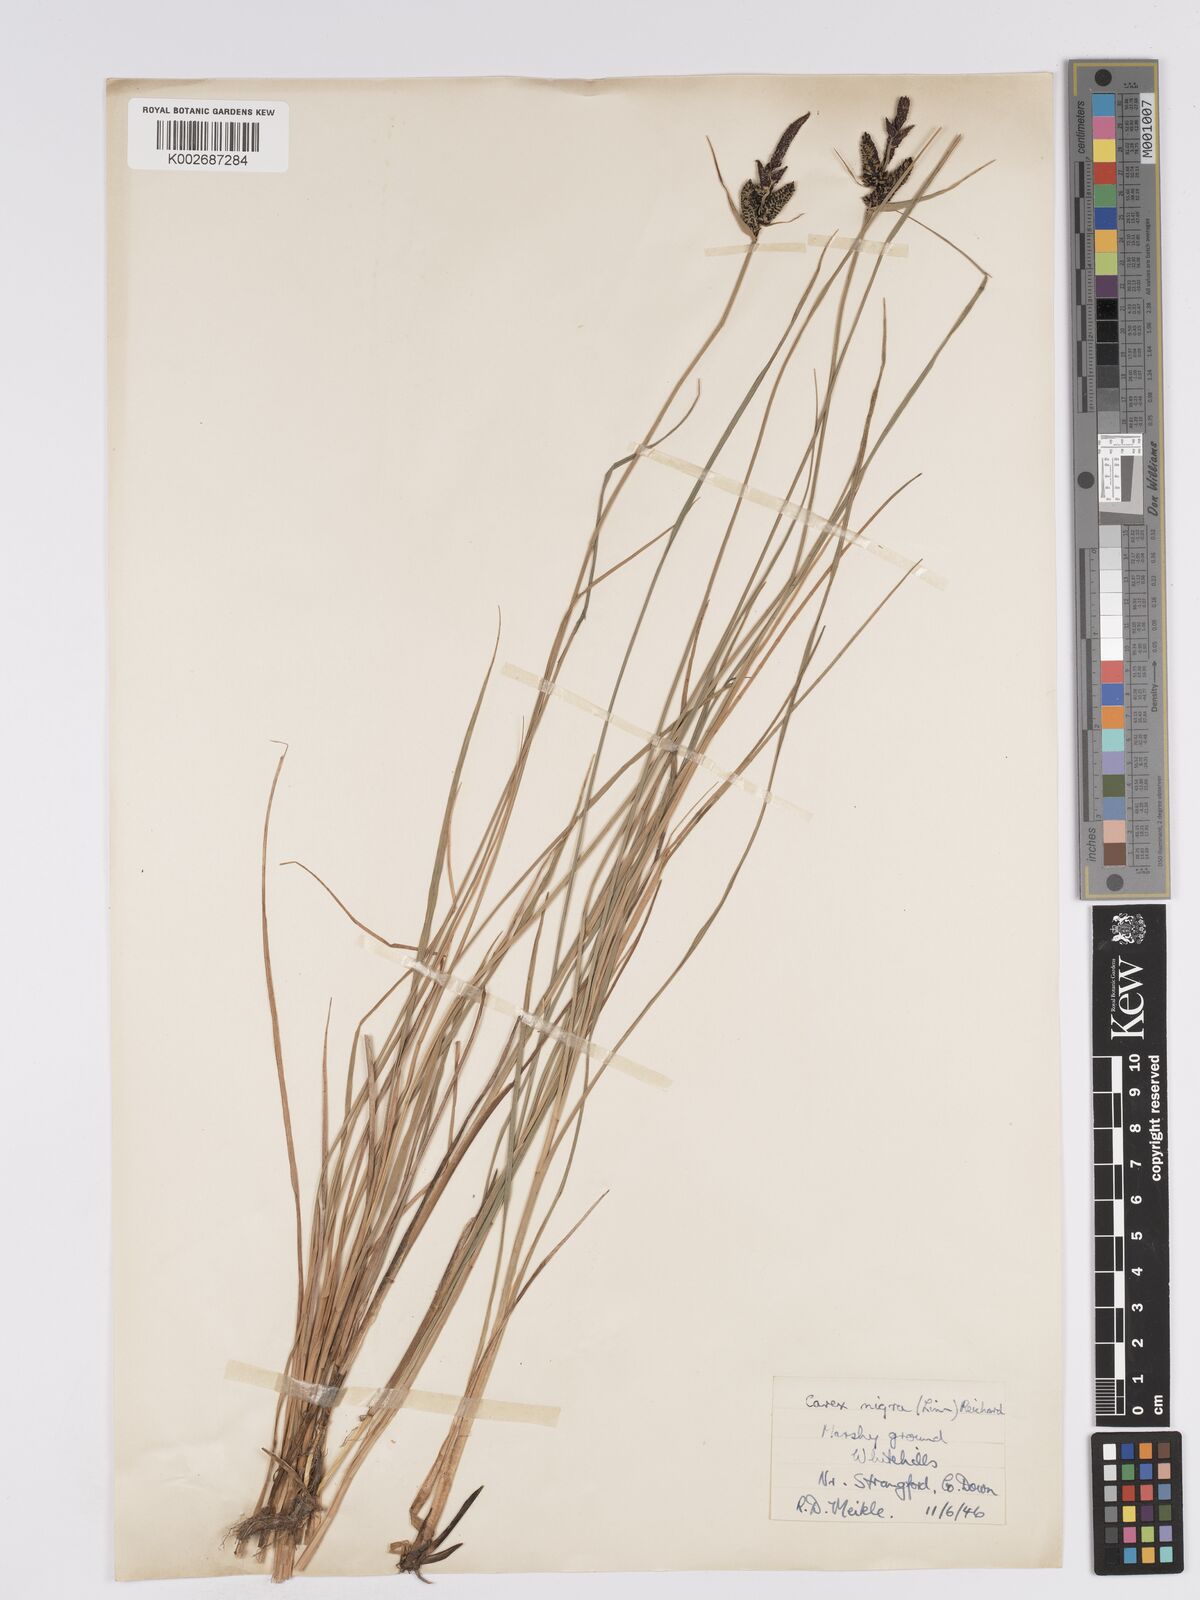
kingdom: Plantae
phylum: Tracheophyta
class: Liliopsida
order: Poales
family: Cyperaceae
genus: Carex
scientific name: Carex nigra
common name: Common sedge
